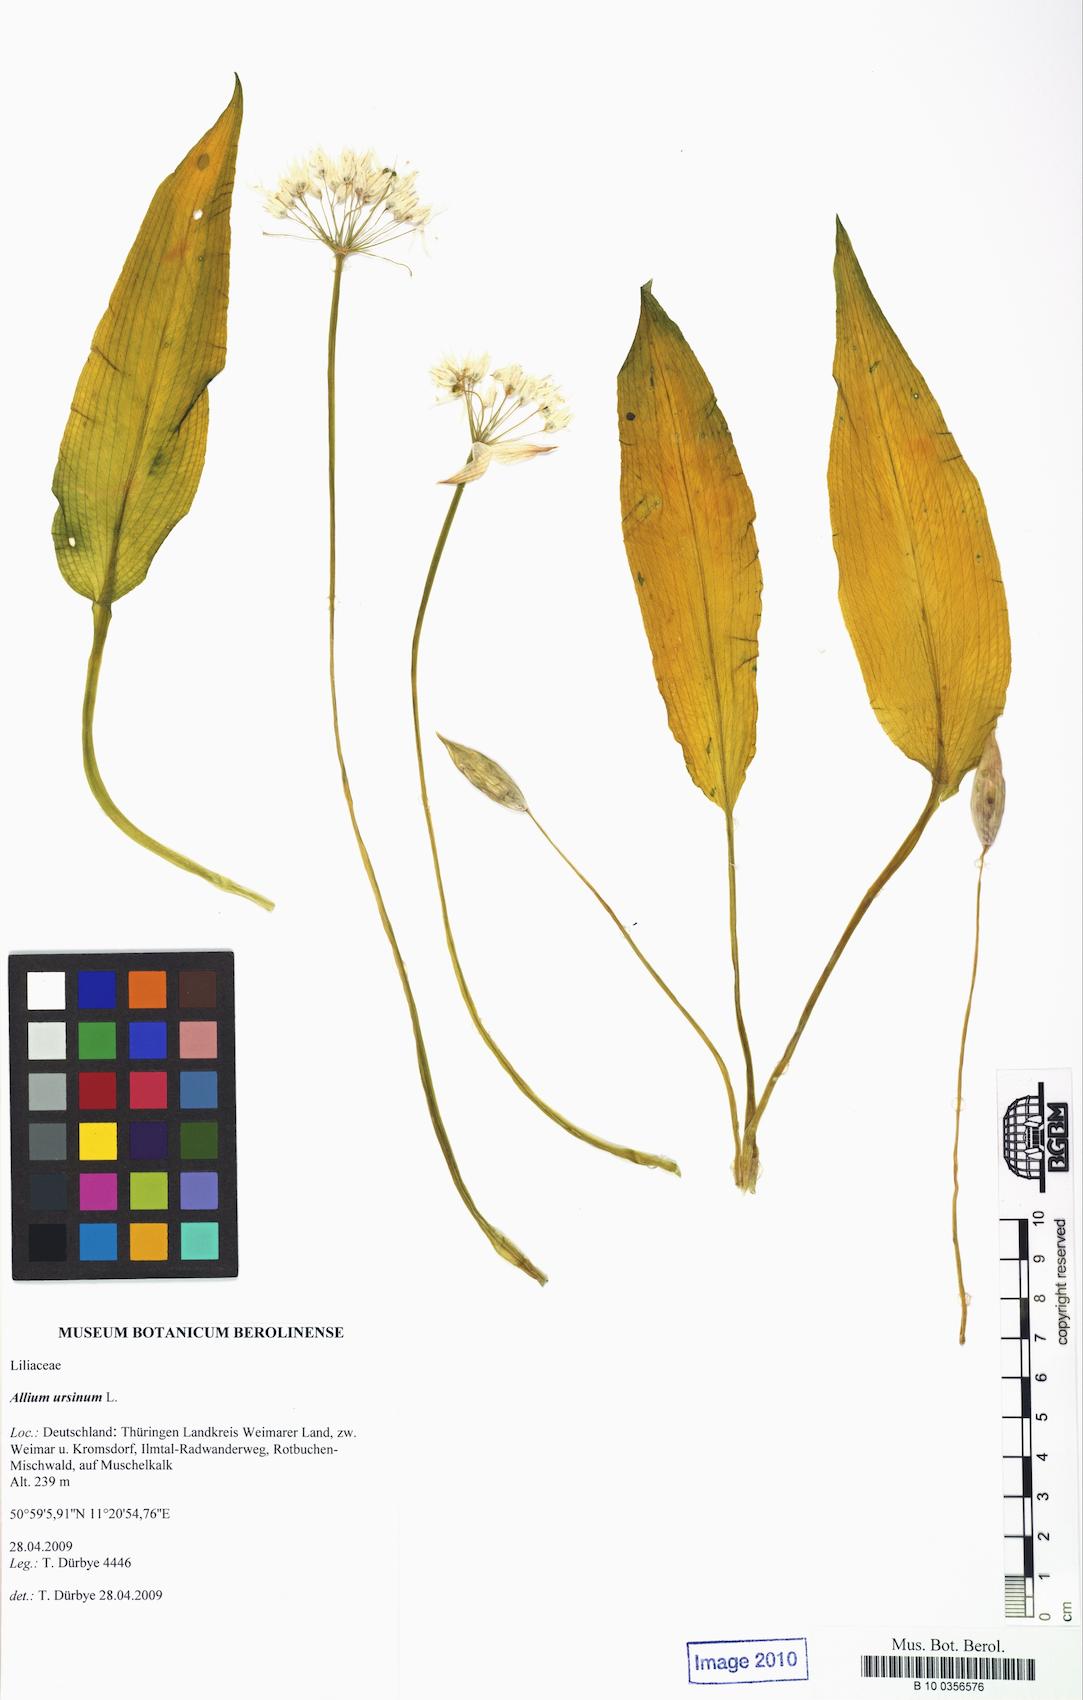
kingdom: Plantae
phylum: Tracheophyta
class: Liliopsida
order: Asparagales
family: Amaryllidaceae
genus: Allium
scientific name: Allium ursinum
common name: Ramsons
